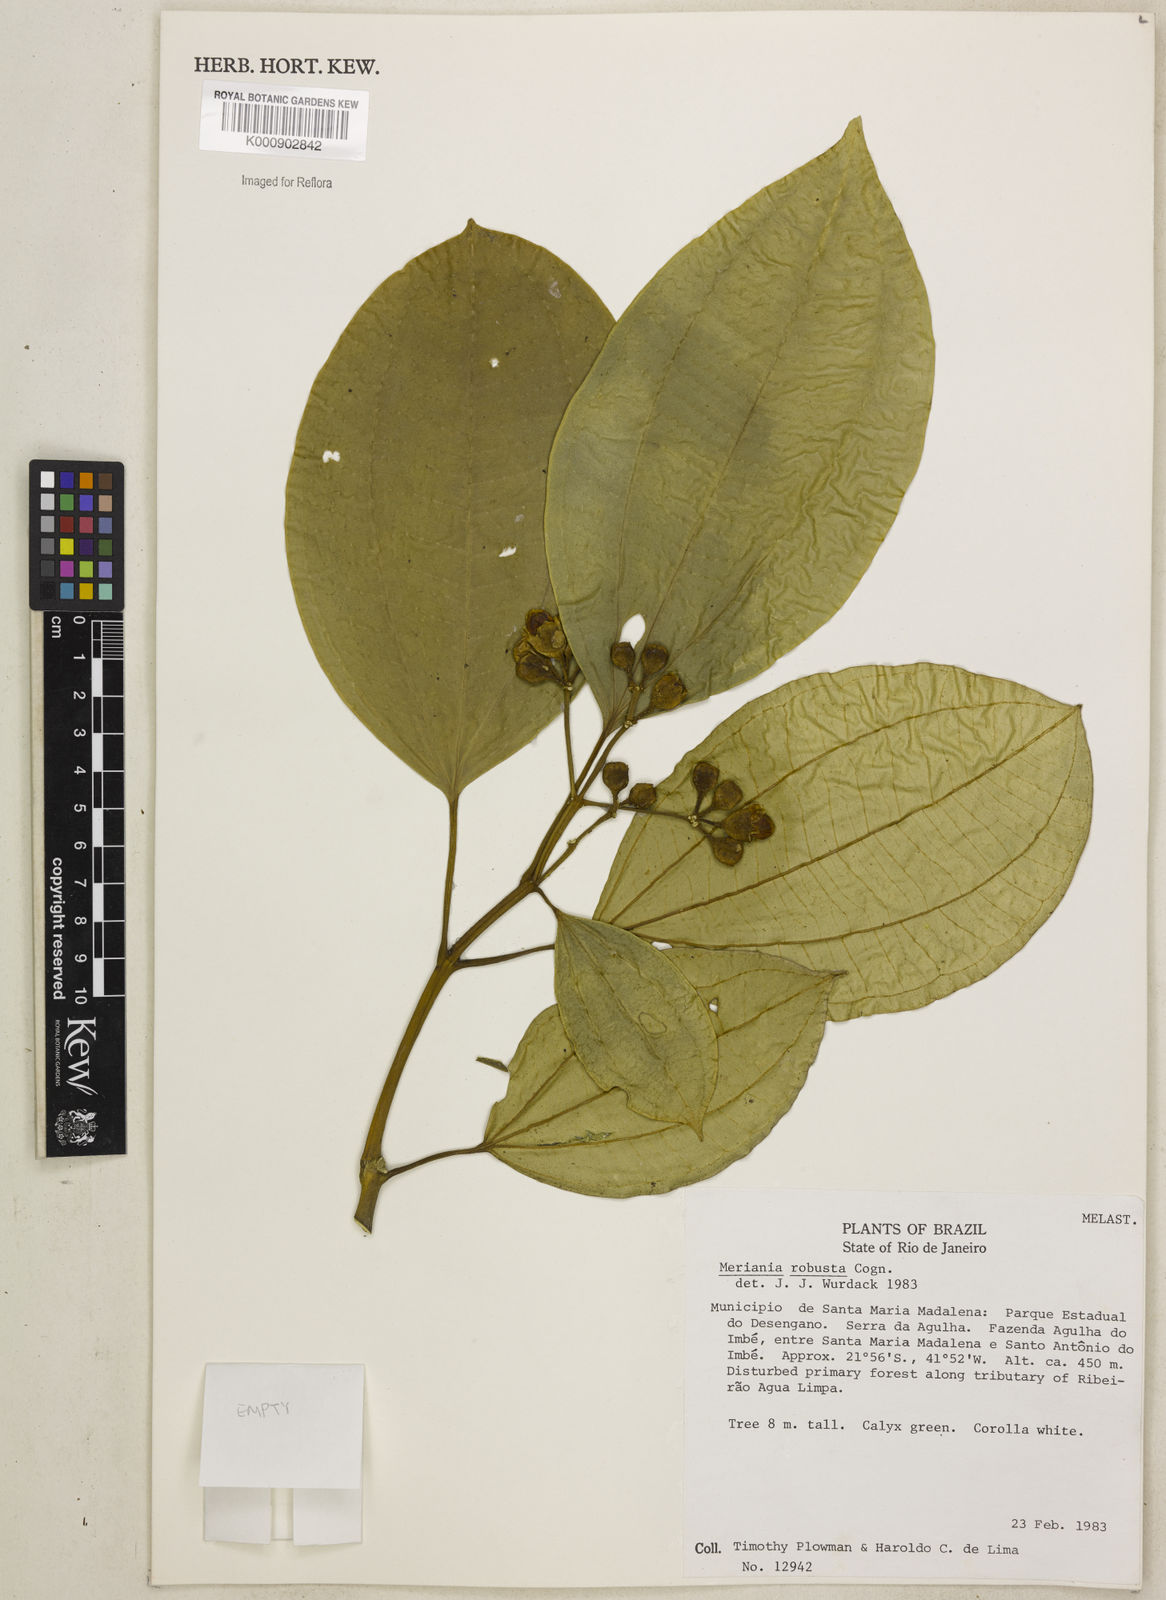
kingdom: Plantae
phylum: Tracheophyta
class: Magnoliopsida
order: Myrtales
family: Melastomataceae
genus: Meriania
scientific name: Meriania robusta
